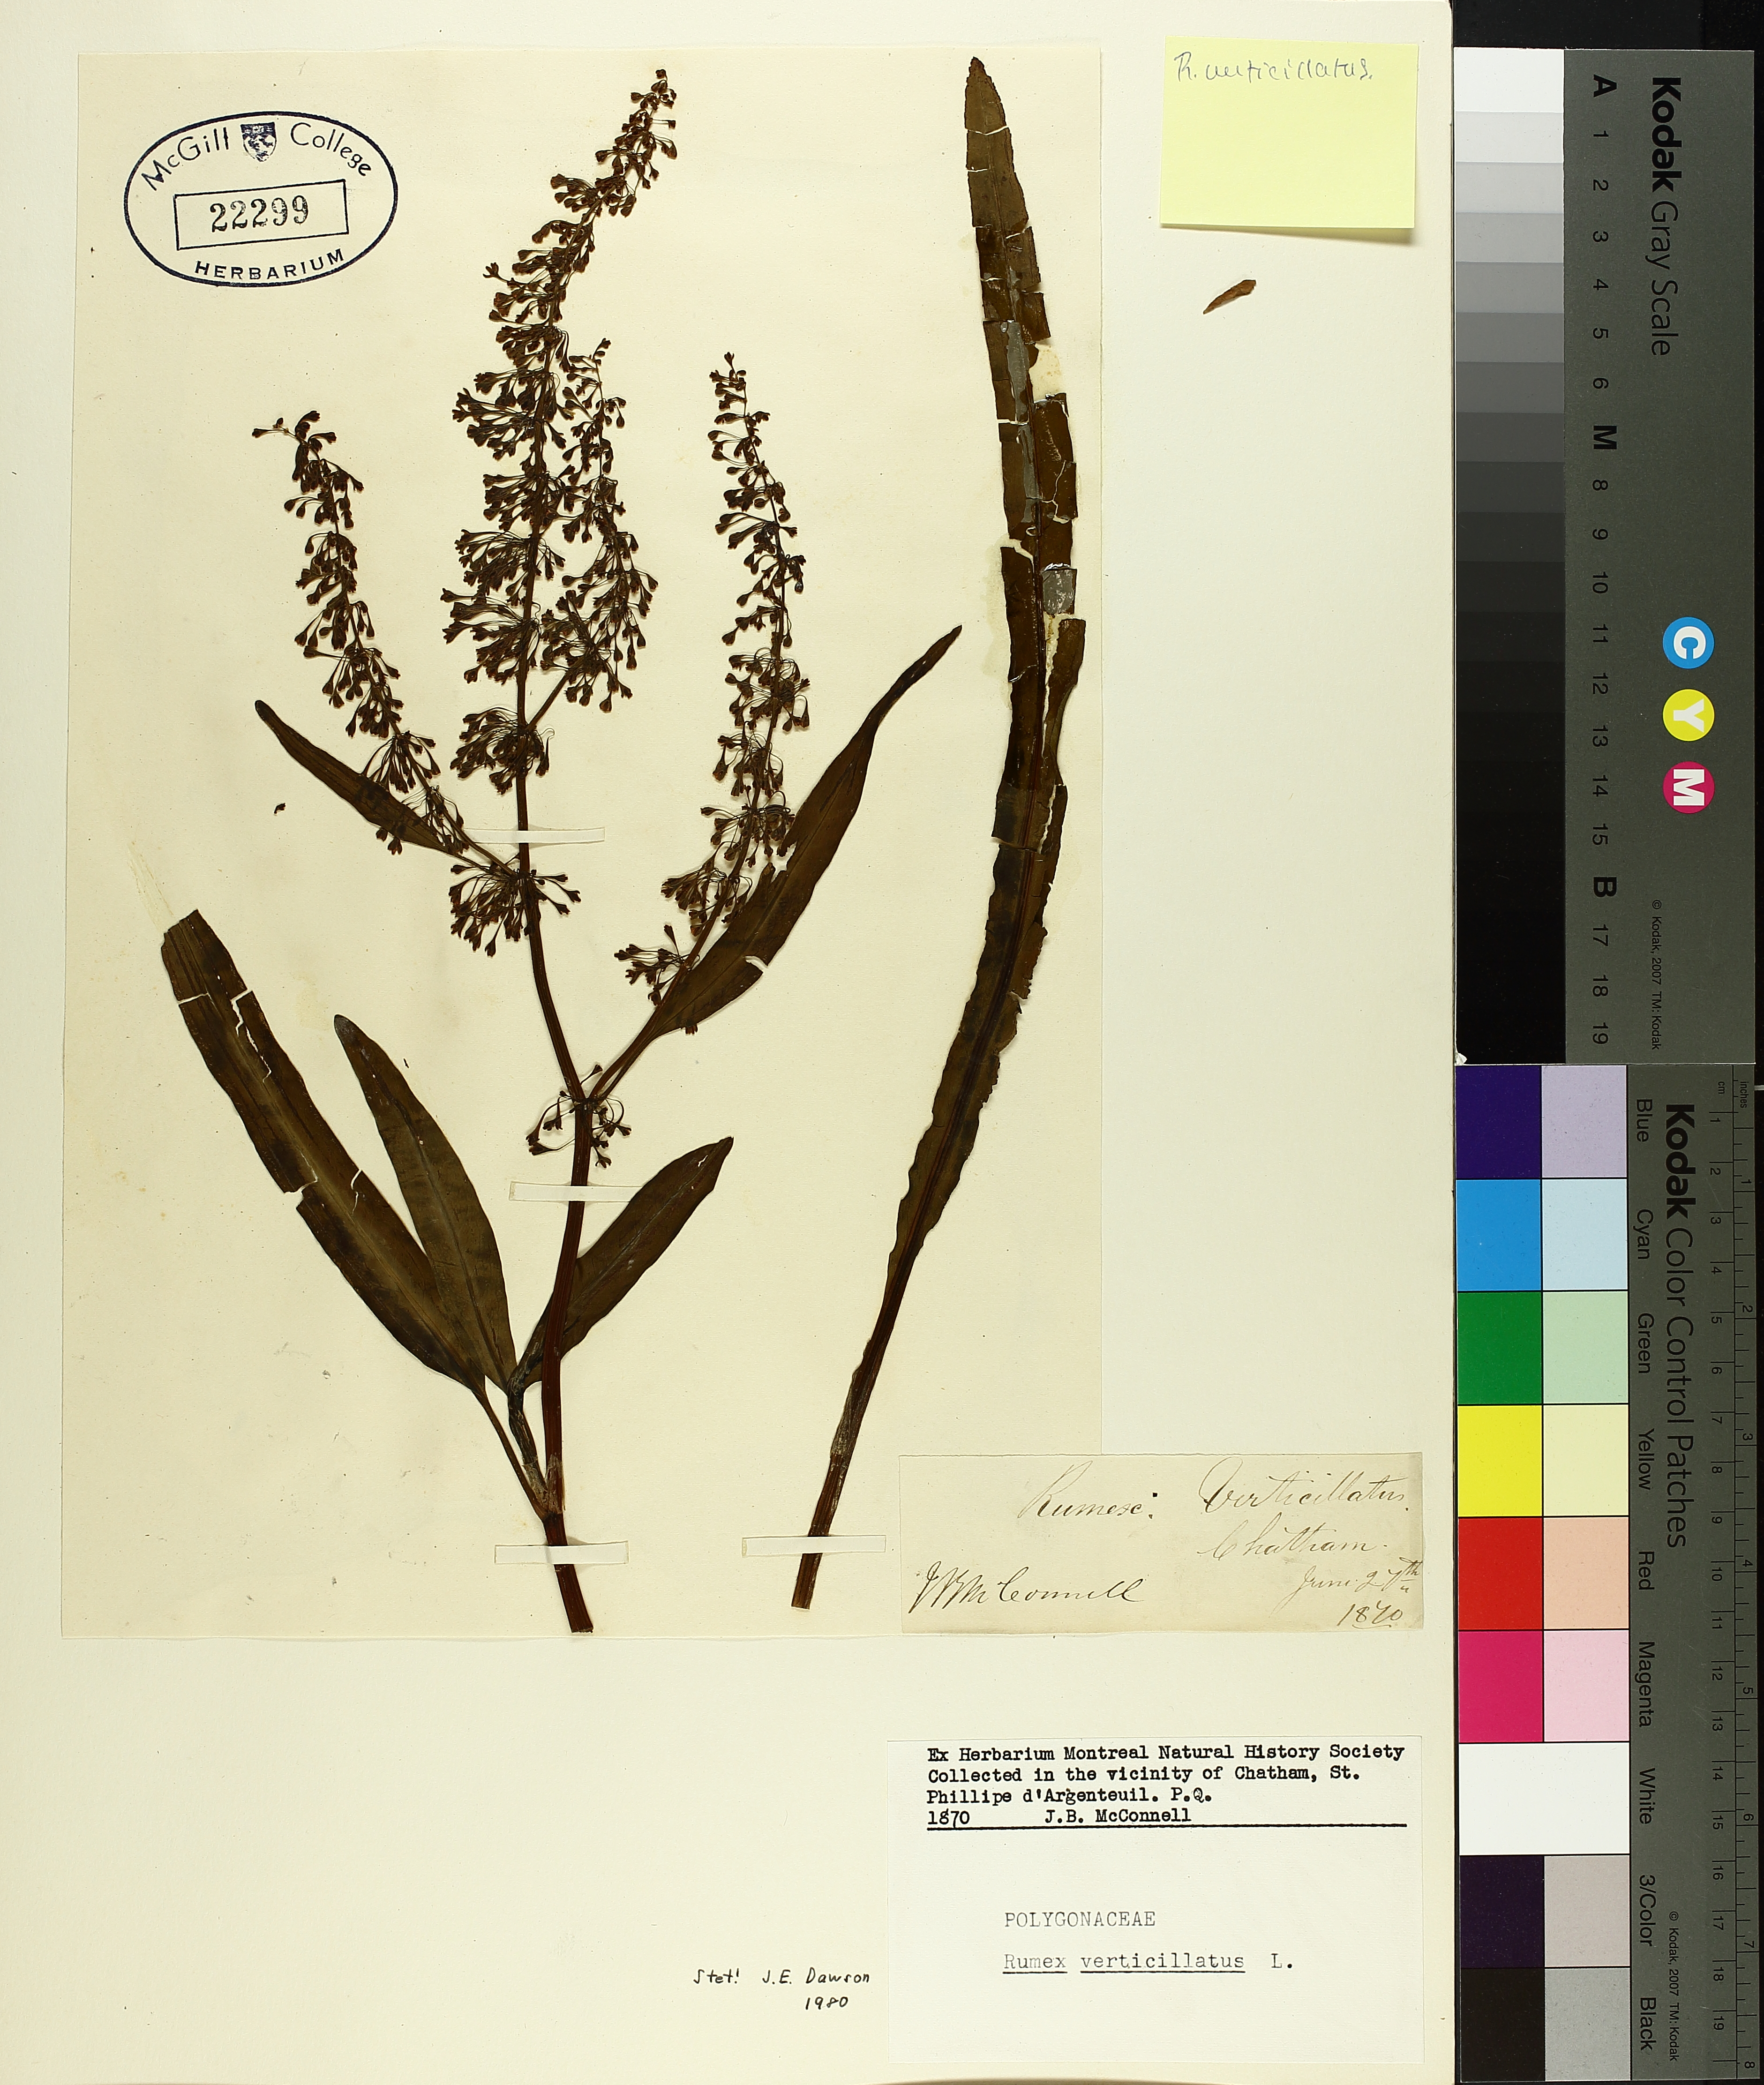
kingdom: Plantae
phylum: Tracheophyta
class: Magnoliopsida
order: Caryophyllales
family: Polygonaceae
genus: Rumex
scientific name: Rumex verticillatus
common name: Swamp dock
